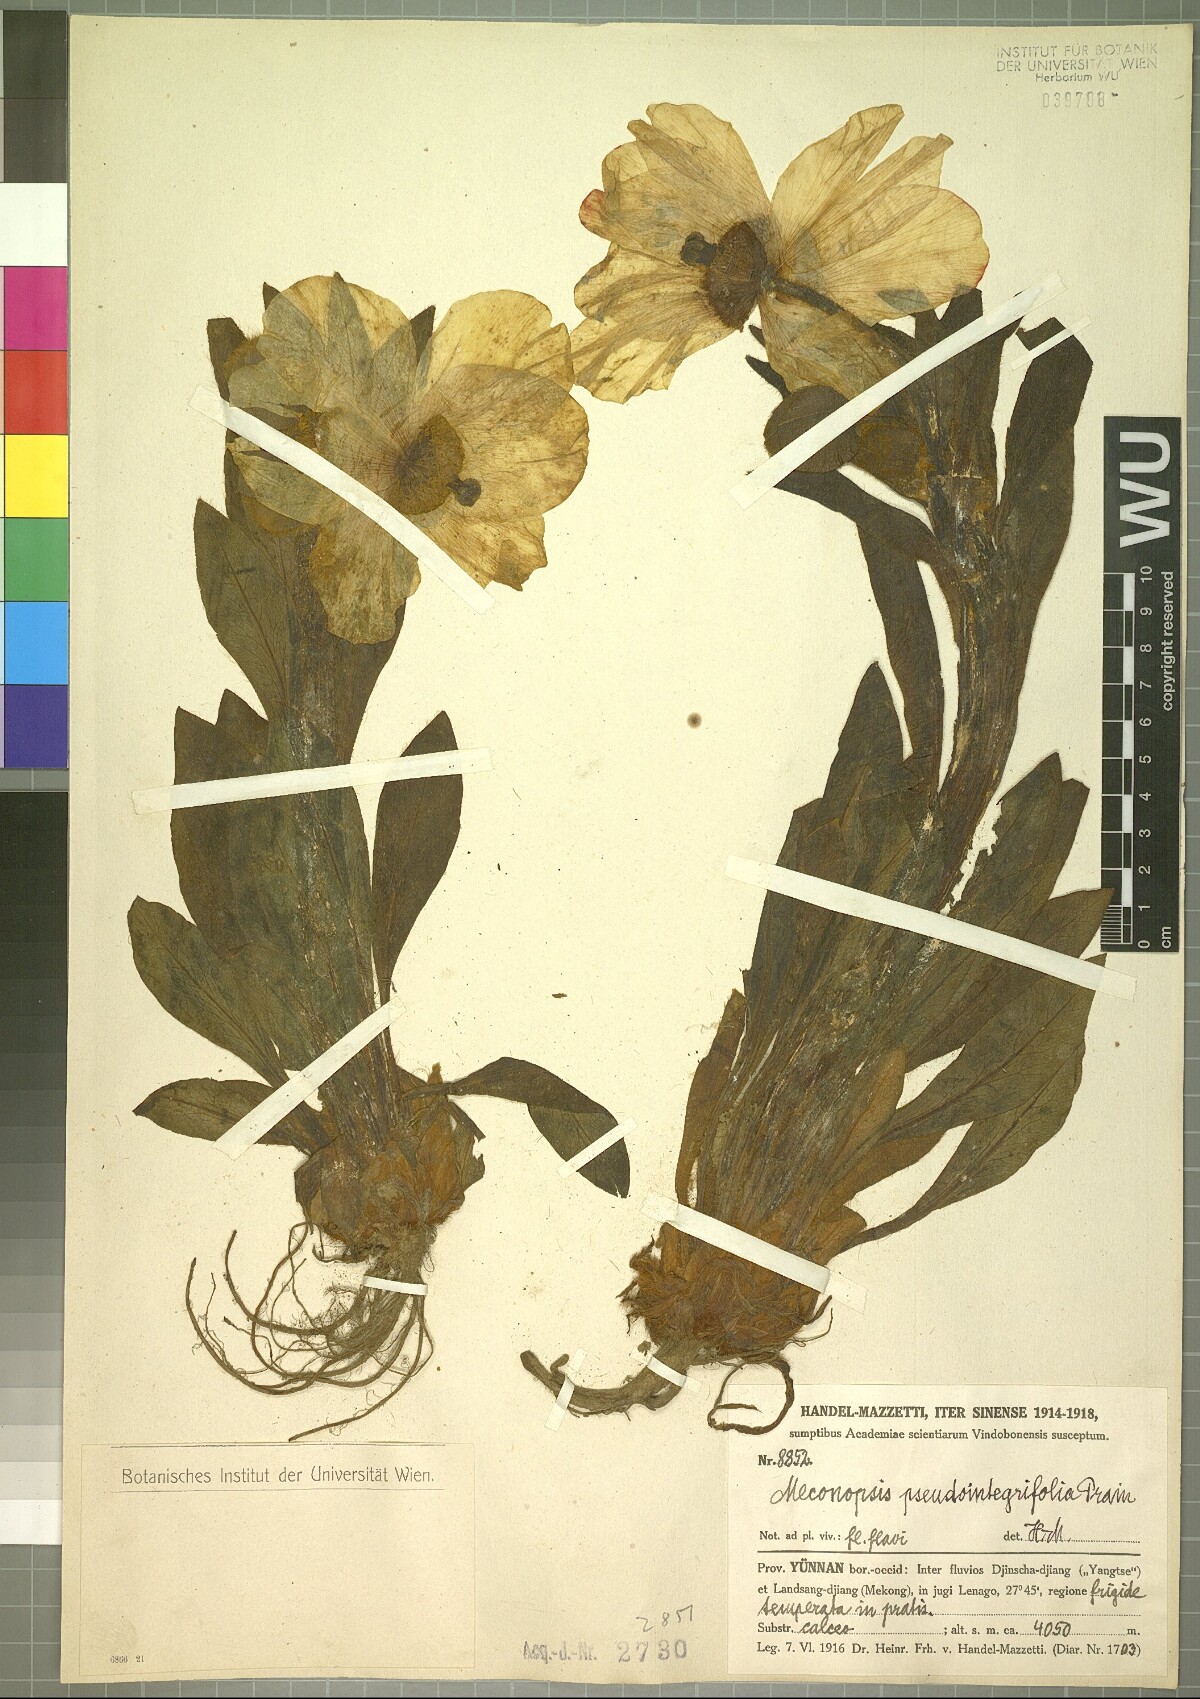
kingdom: Plantae
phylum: Tracheophyta
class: Magnoliopsida
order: Ranunculales
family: Papaveraceae
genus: Meconopsis
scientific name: Meconopsis pseudointegrifolia
